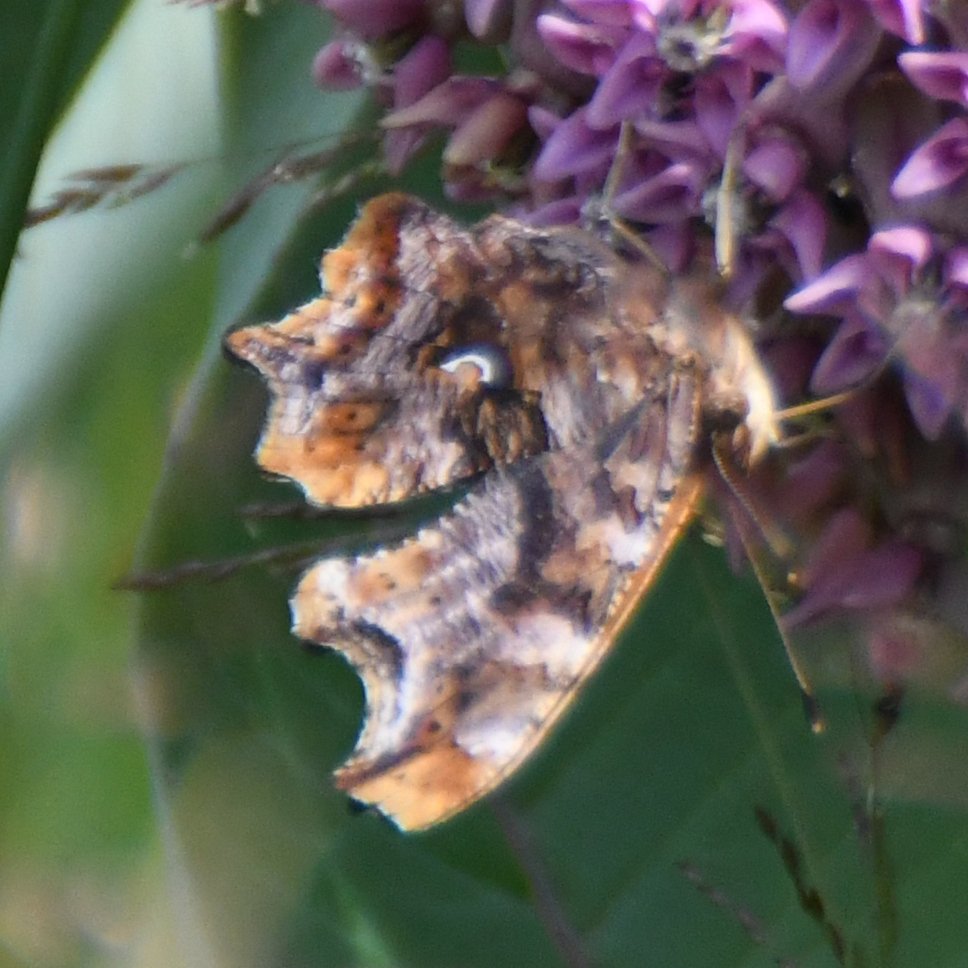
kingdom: Animalia
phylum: Arthropoda
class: Insecta
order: Lepidoptera
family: Nymphalidae
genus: Polygonia
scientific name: Polygonia comma
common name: Eastern Comma
